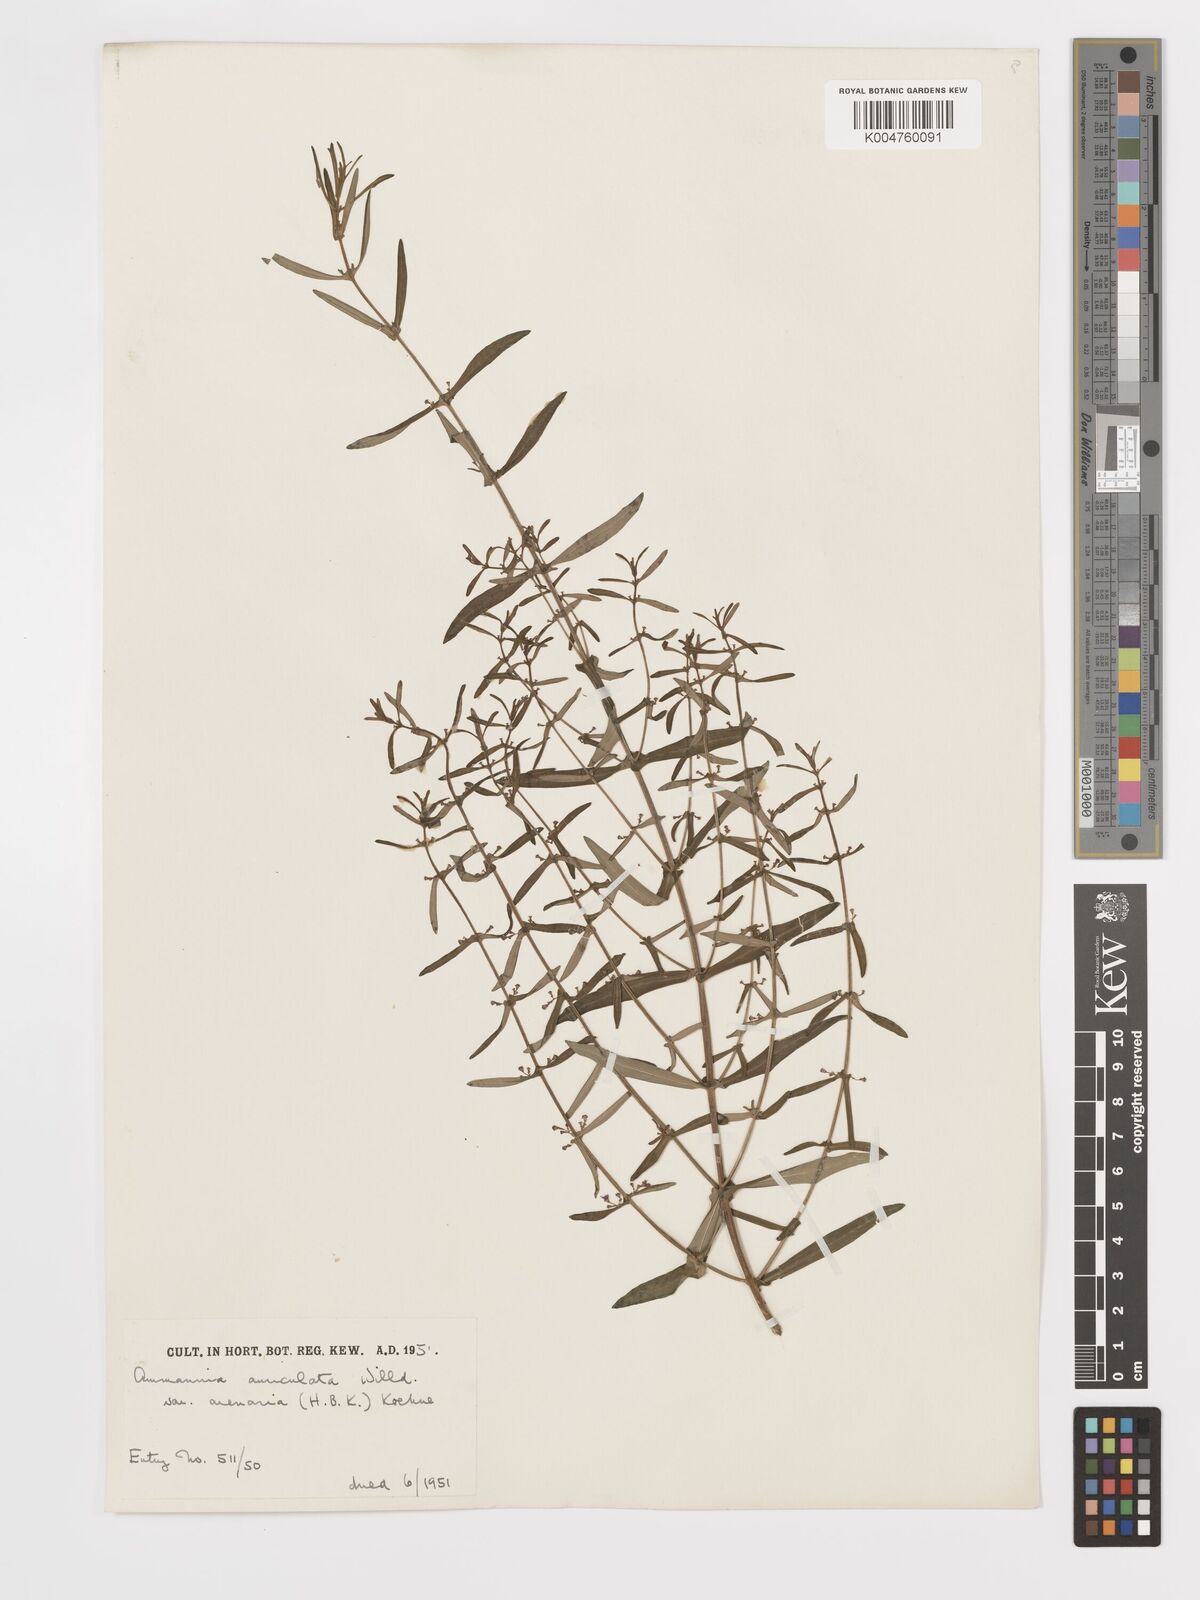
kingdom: Plantae
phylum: Tracheophyta
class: Magnoliopsida
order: Myrtales
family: Lythraceae
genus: Ammannia
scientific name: Ammannia auriculata
